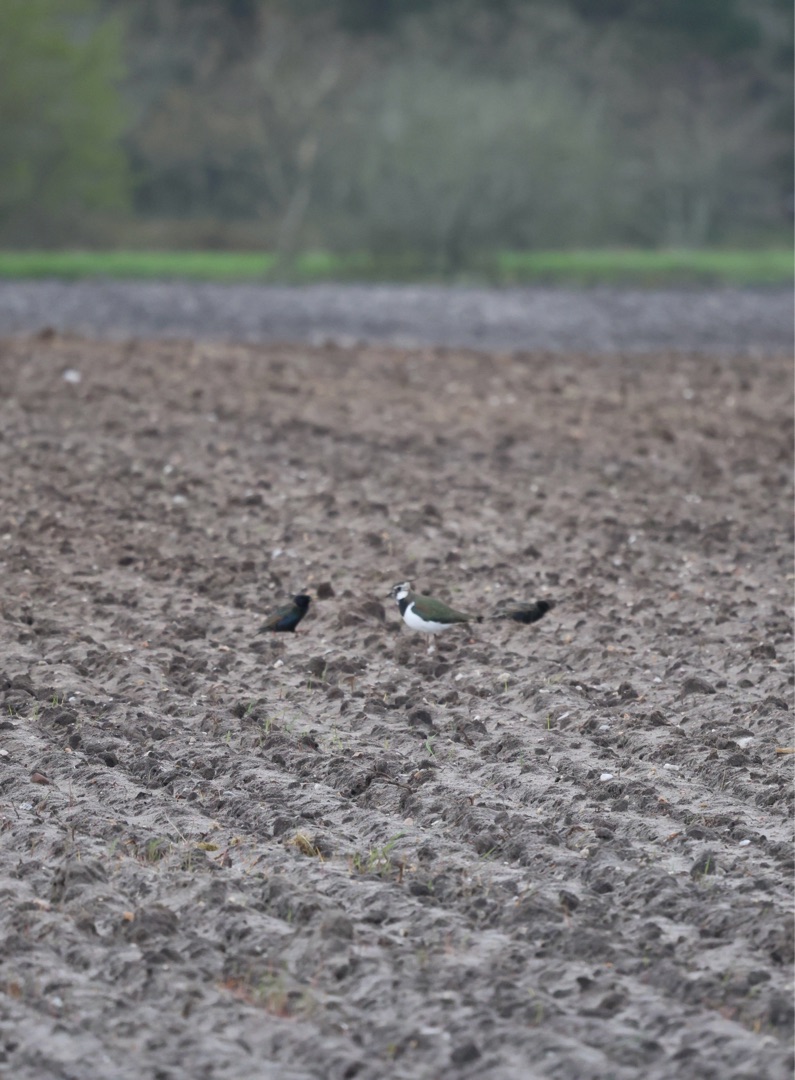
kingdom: Animalia
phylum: Chordata
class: Aves
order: Passeriformes
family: Sturnidae
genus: Sturnus
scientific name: Sturnus vulgaris
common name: Stær
